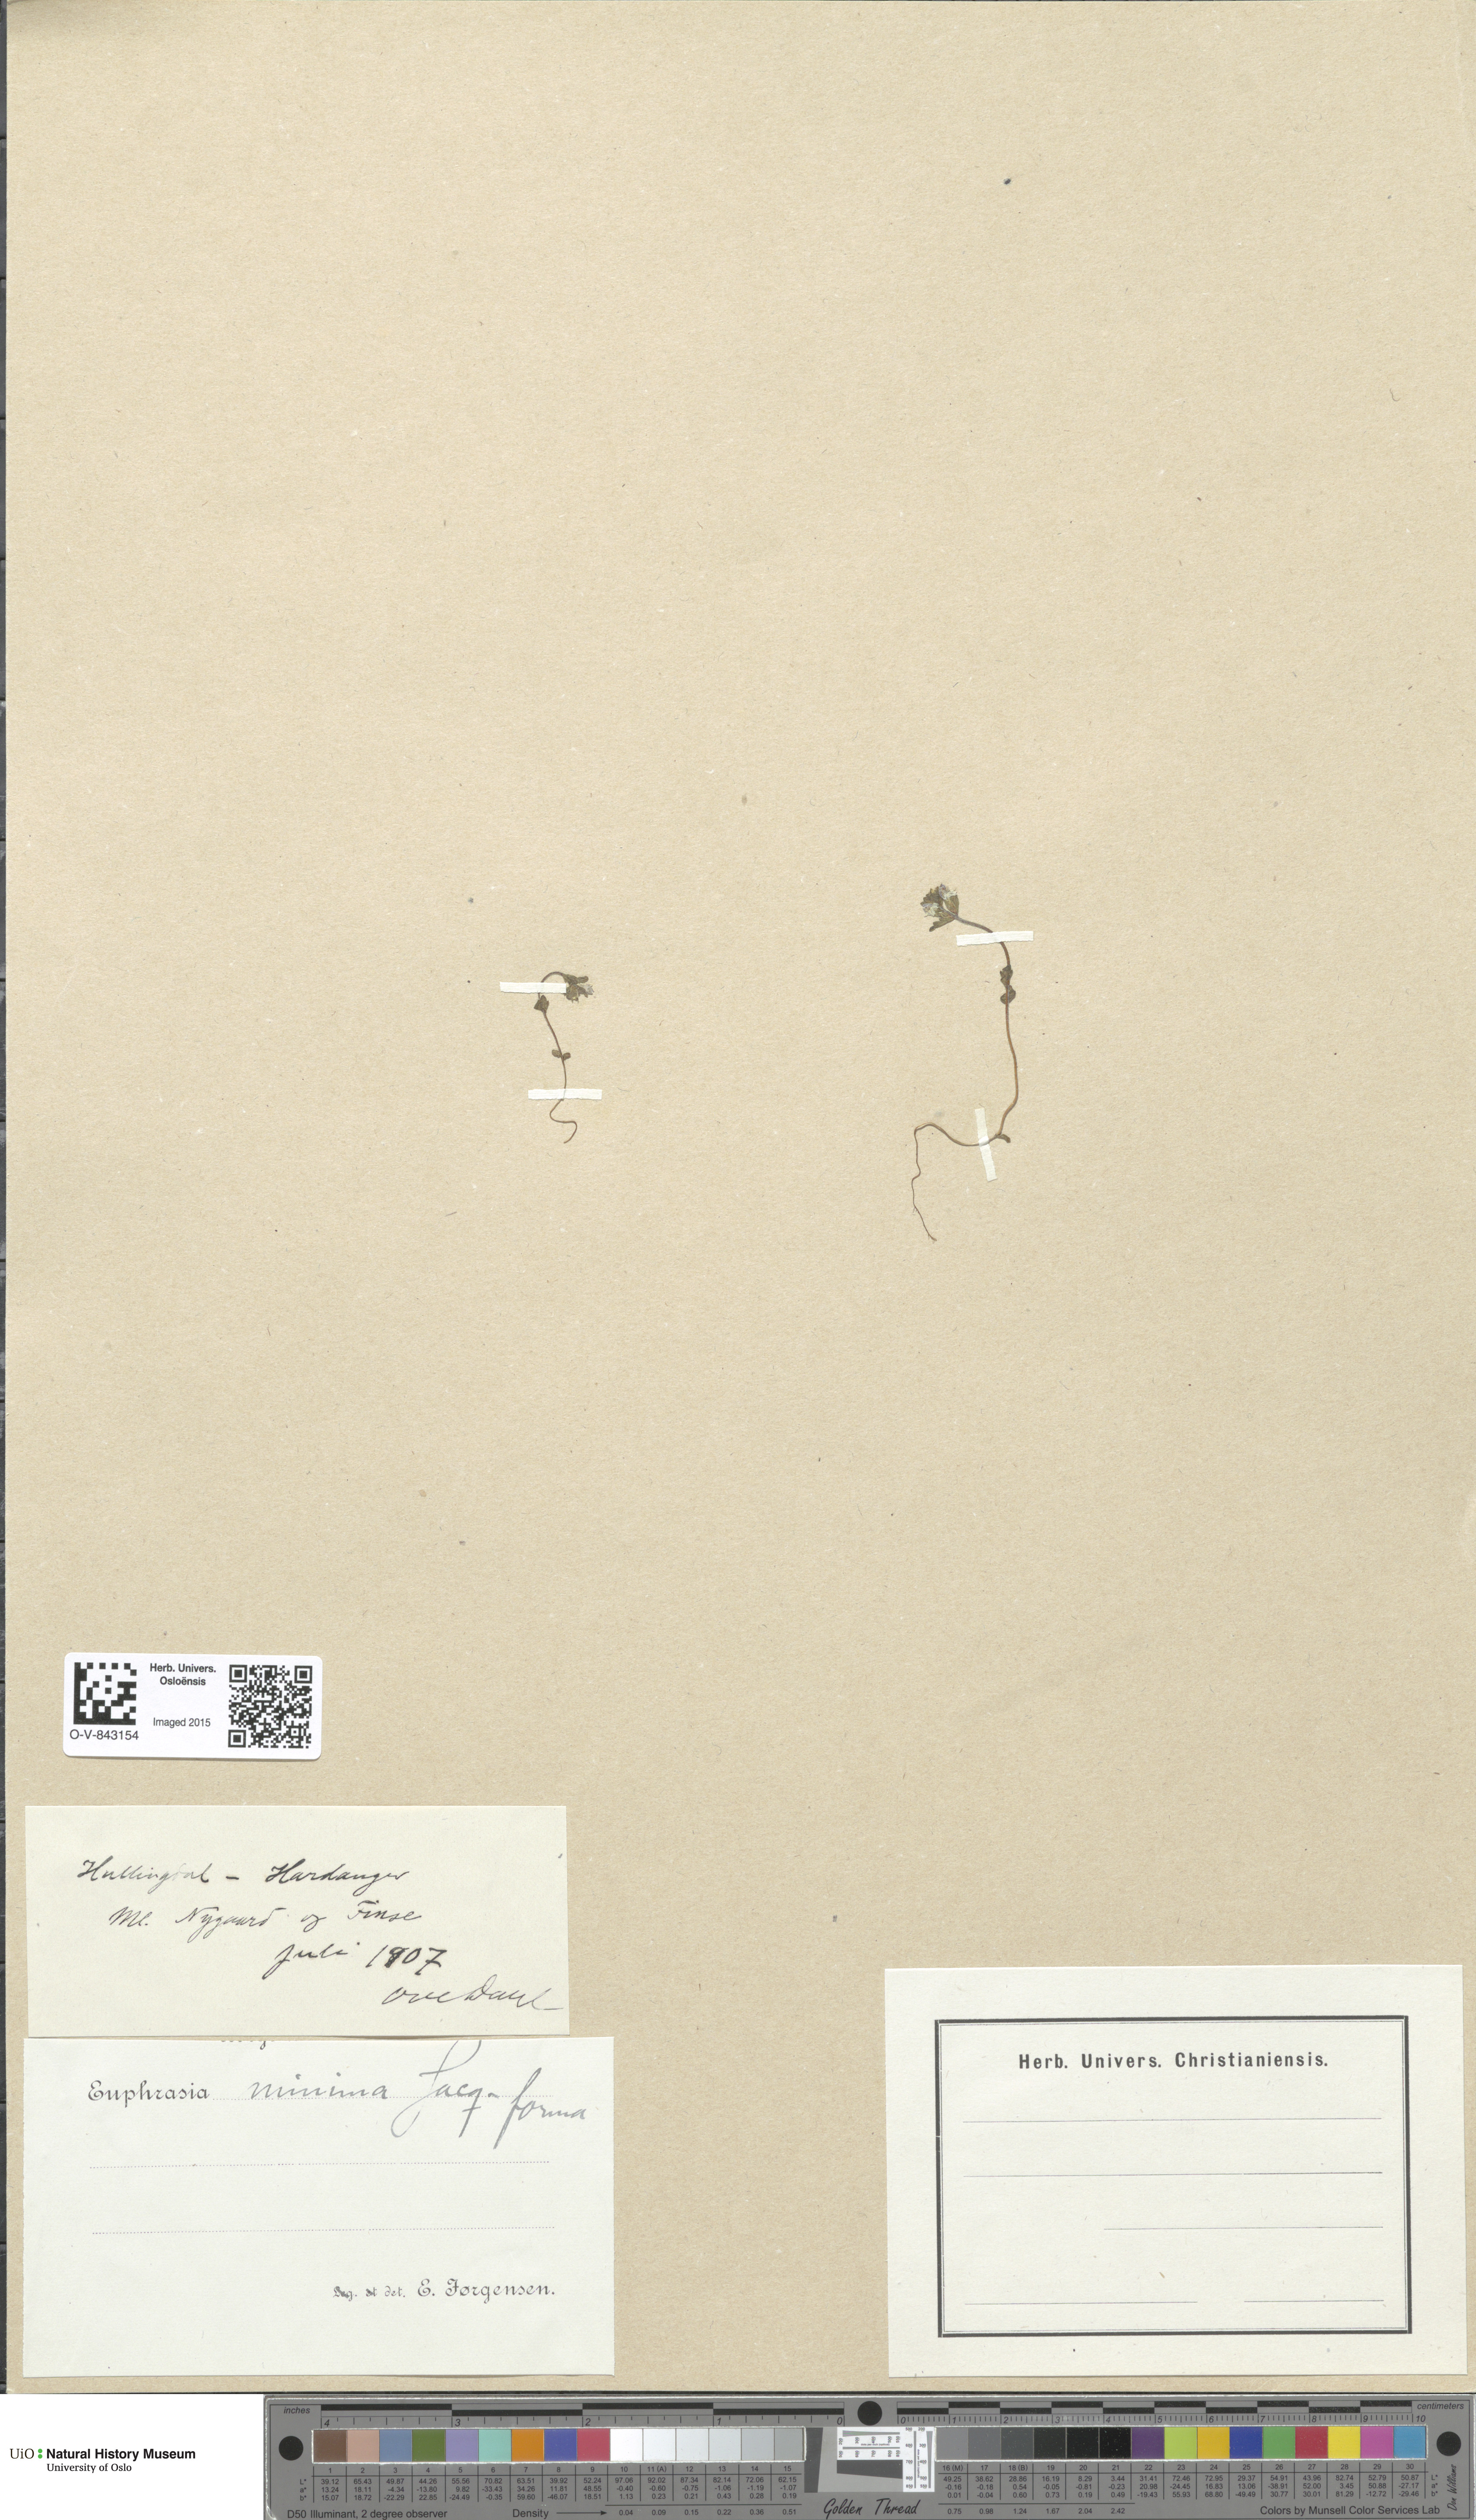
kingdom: Plantae
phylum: Tracheophyta
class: Magnoliopsida
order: Lamiales
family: Orobanchaceae
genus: Euphrasia
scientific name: Euphrasia wettsteinii
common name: Wettstein's eyebright
